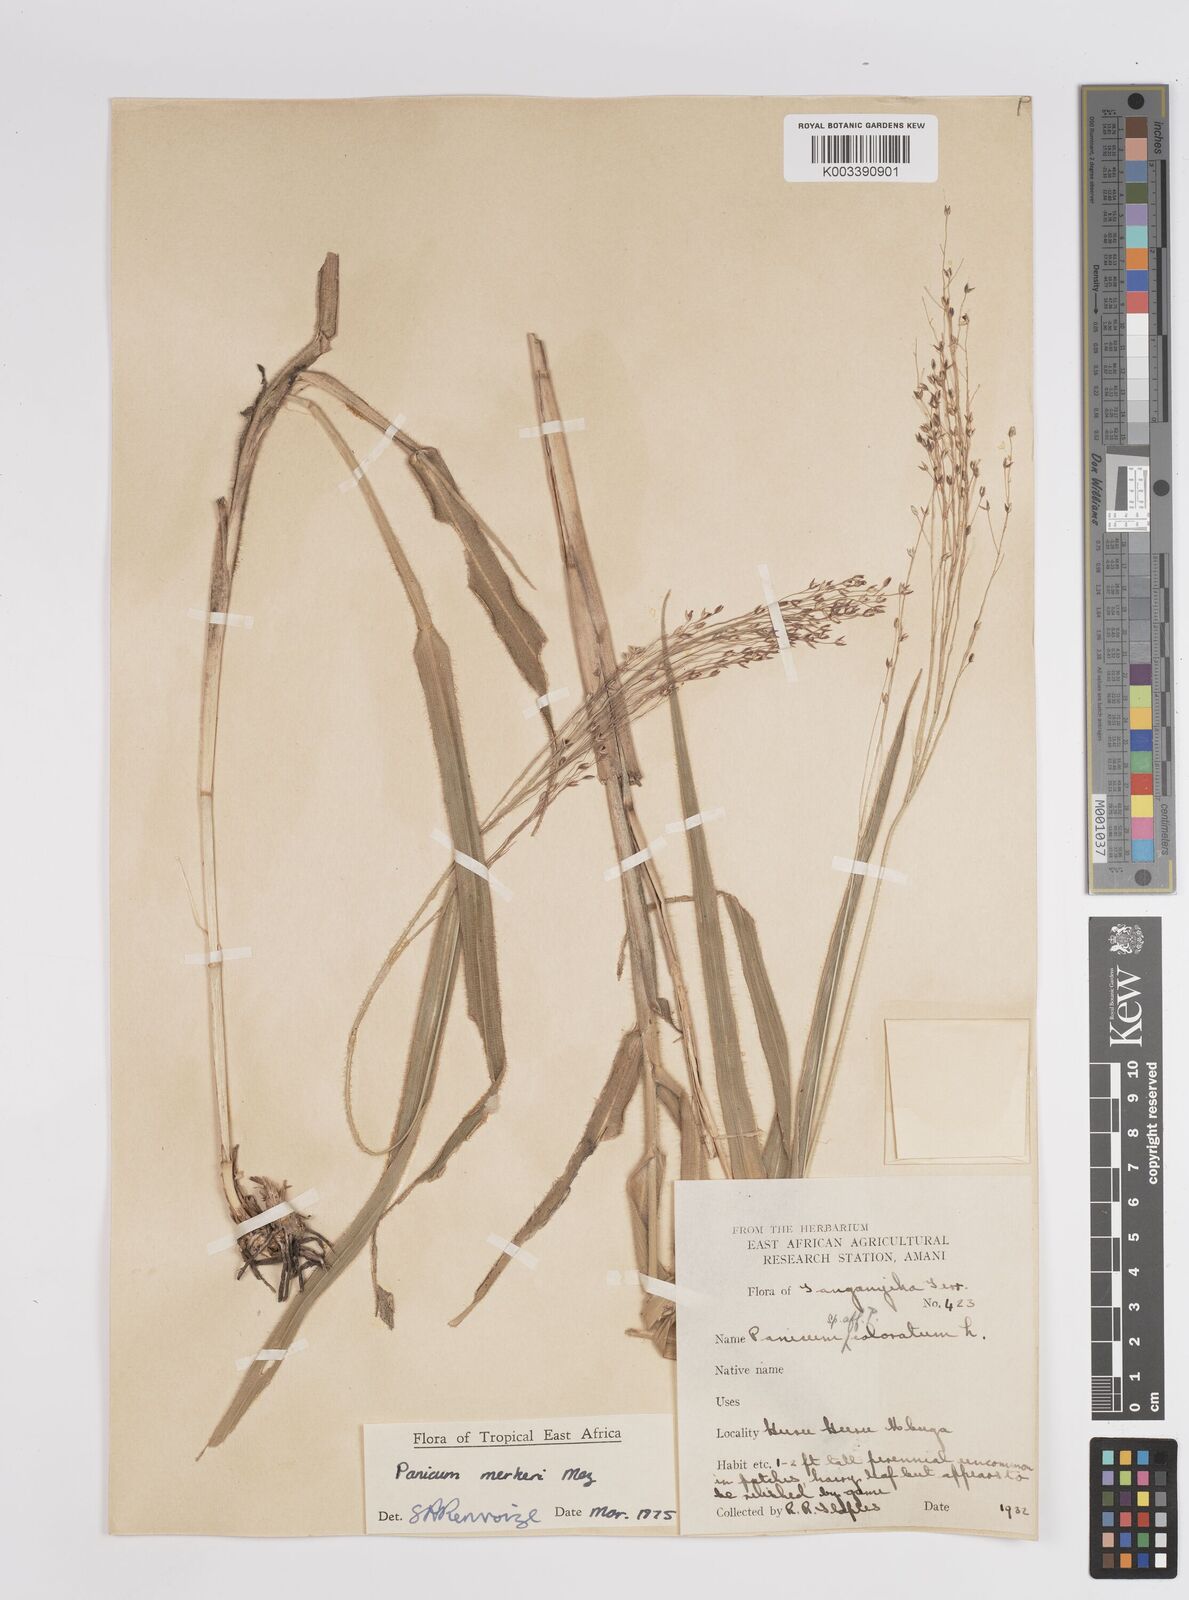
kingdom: Plantae
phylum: Tracheophyta
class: Liliopsida
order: Poales
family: Poaceae
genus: Panicum
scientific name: Panicum merkeri
